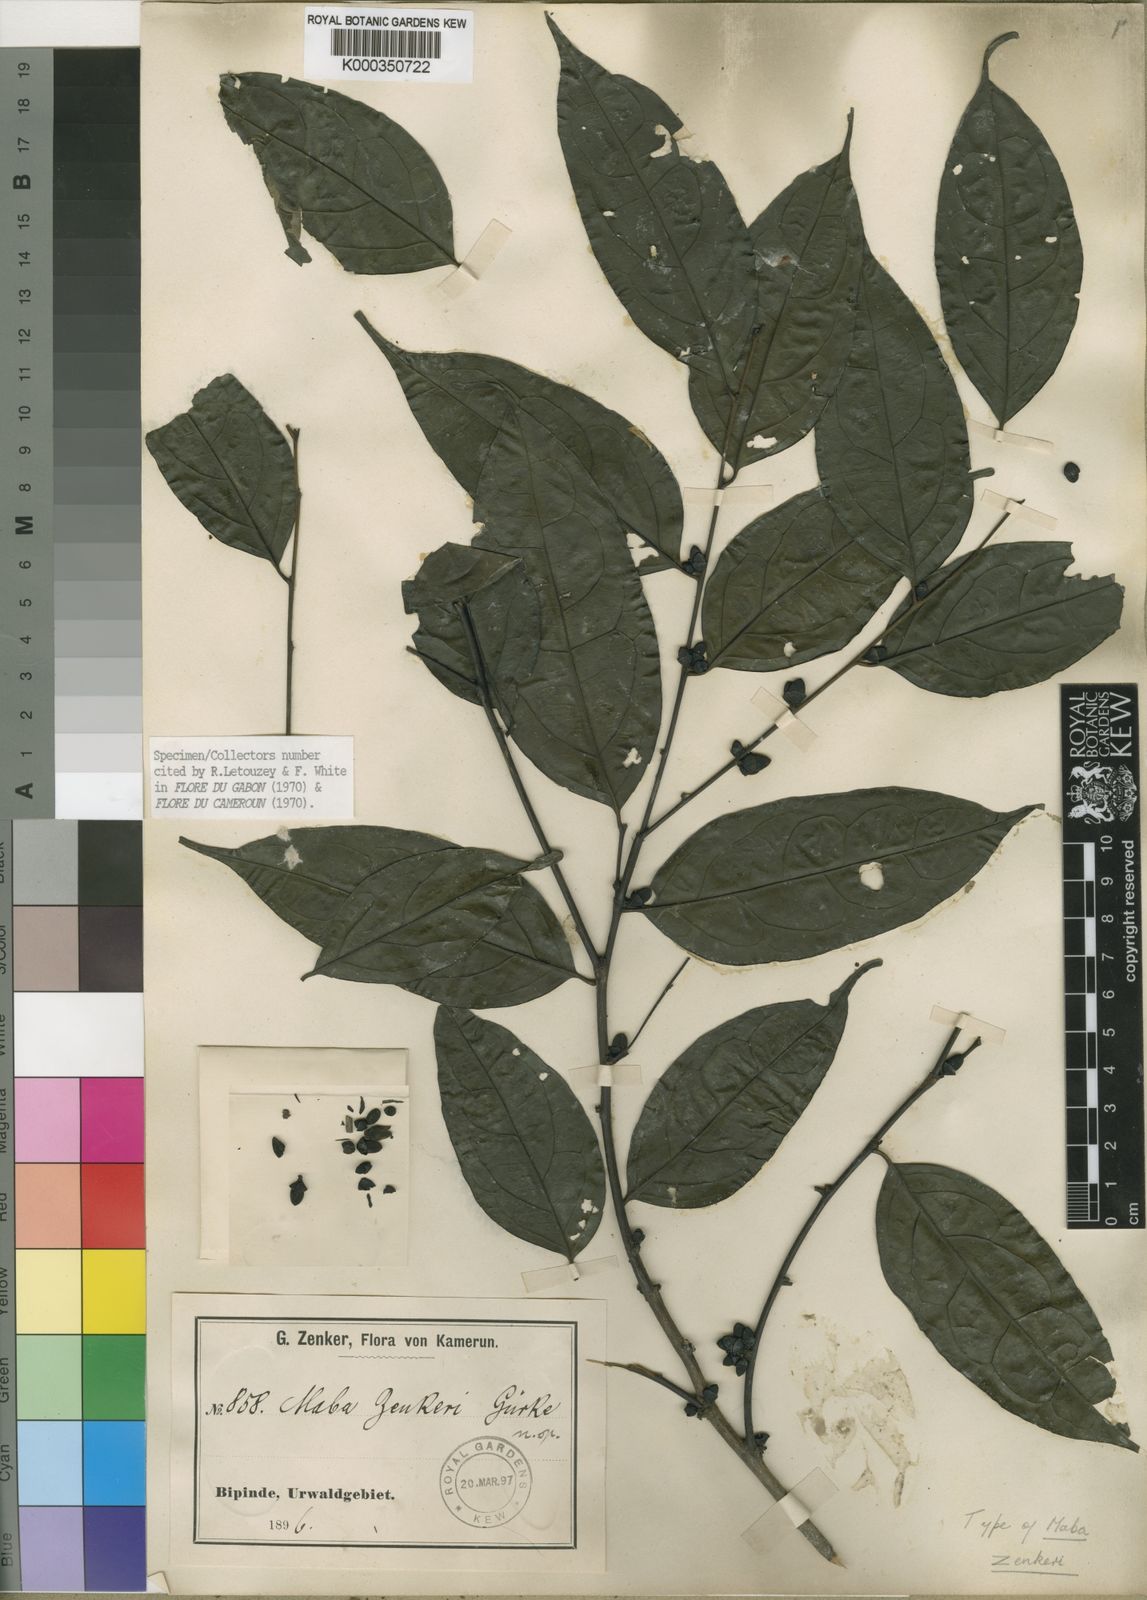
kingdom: Plantae
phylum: Tracheophyta
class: Magnoliopsida
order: Ericales
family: Ebenaceae
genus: Diospyros
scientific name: Diospyros
